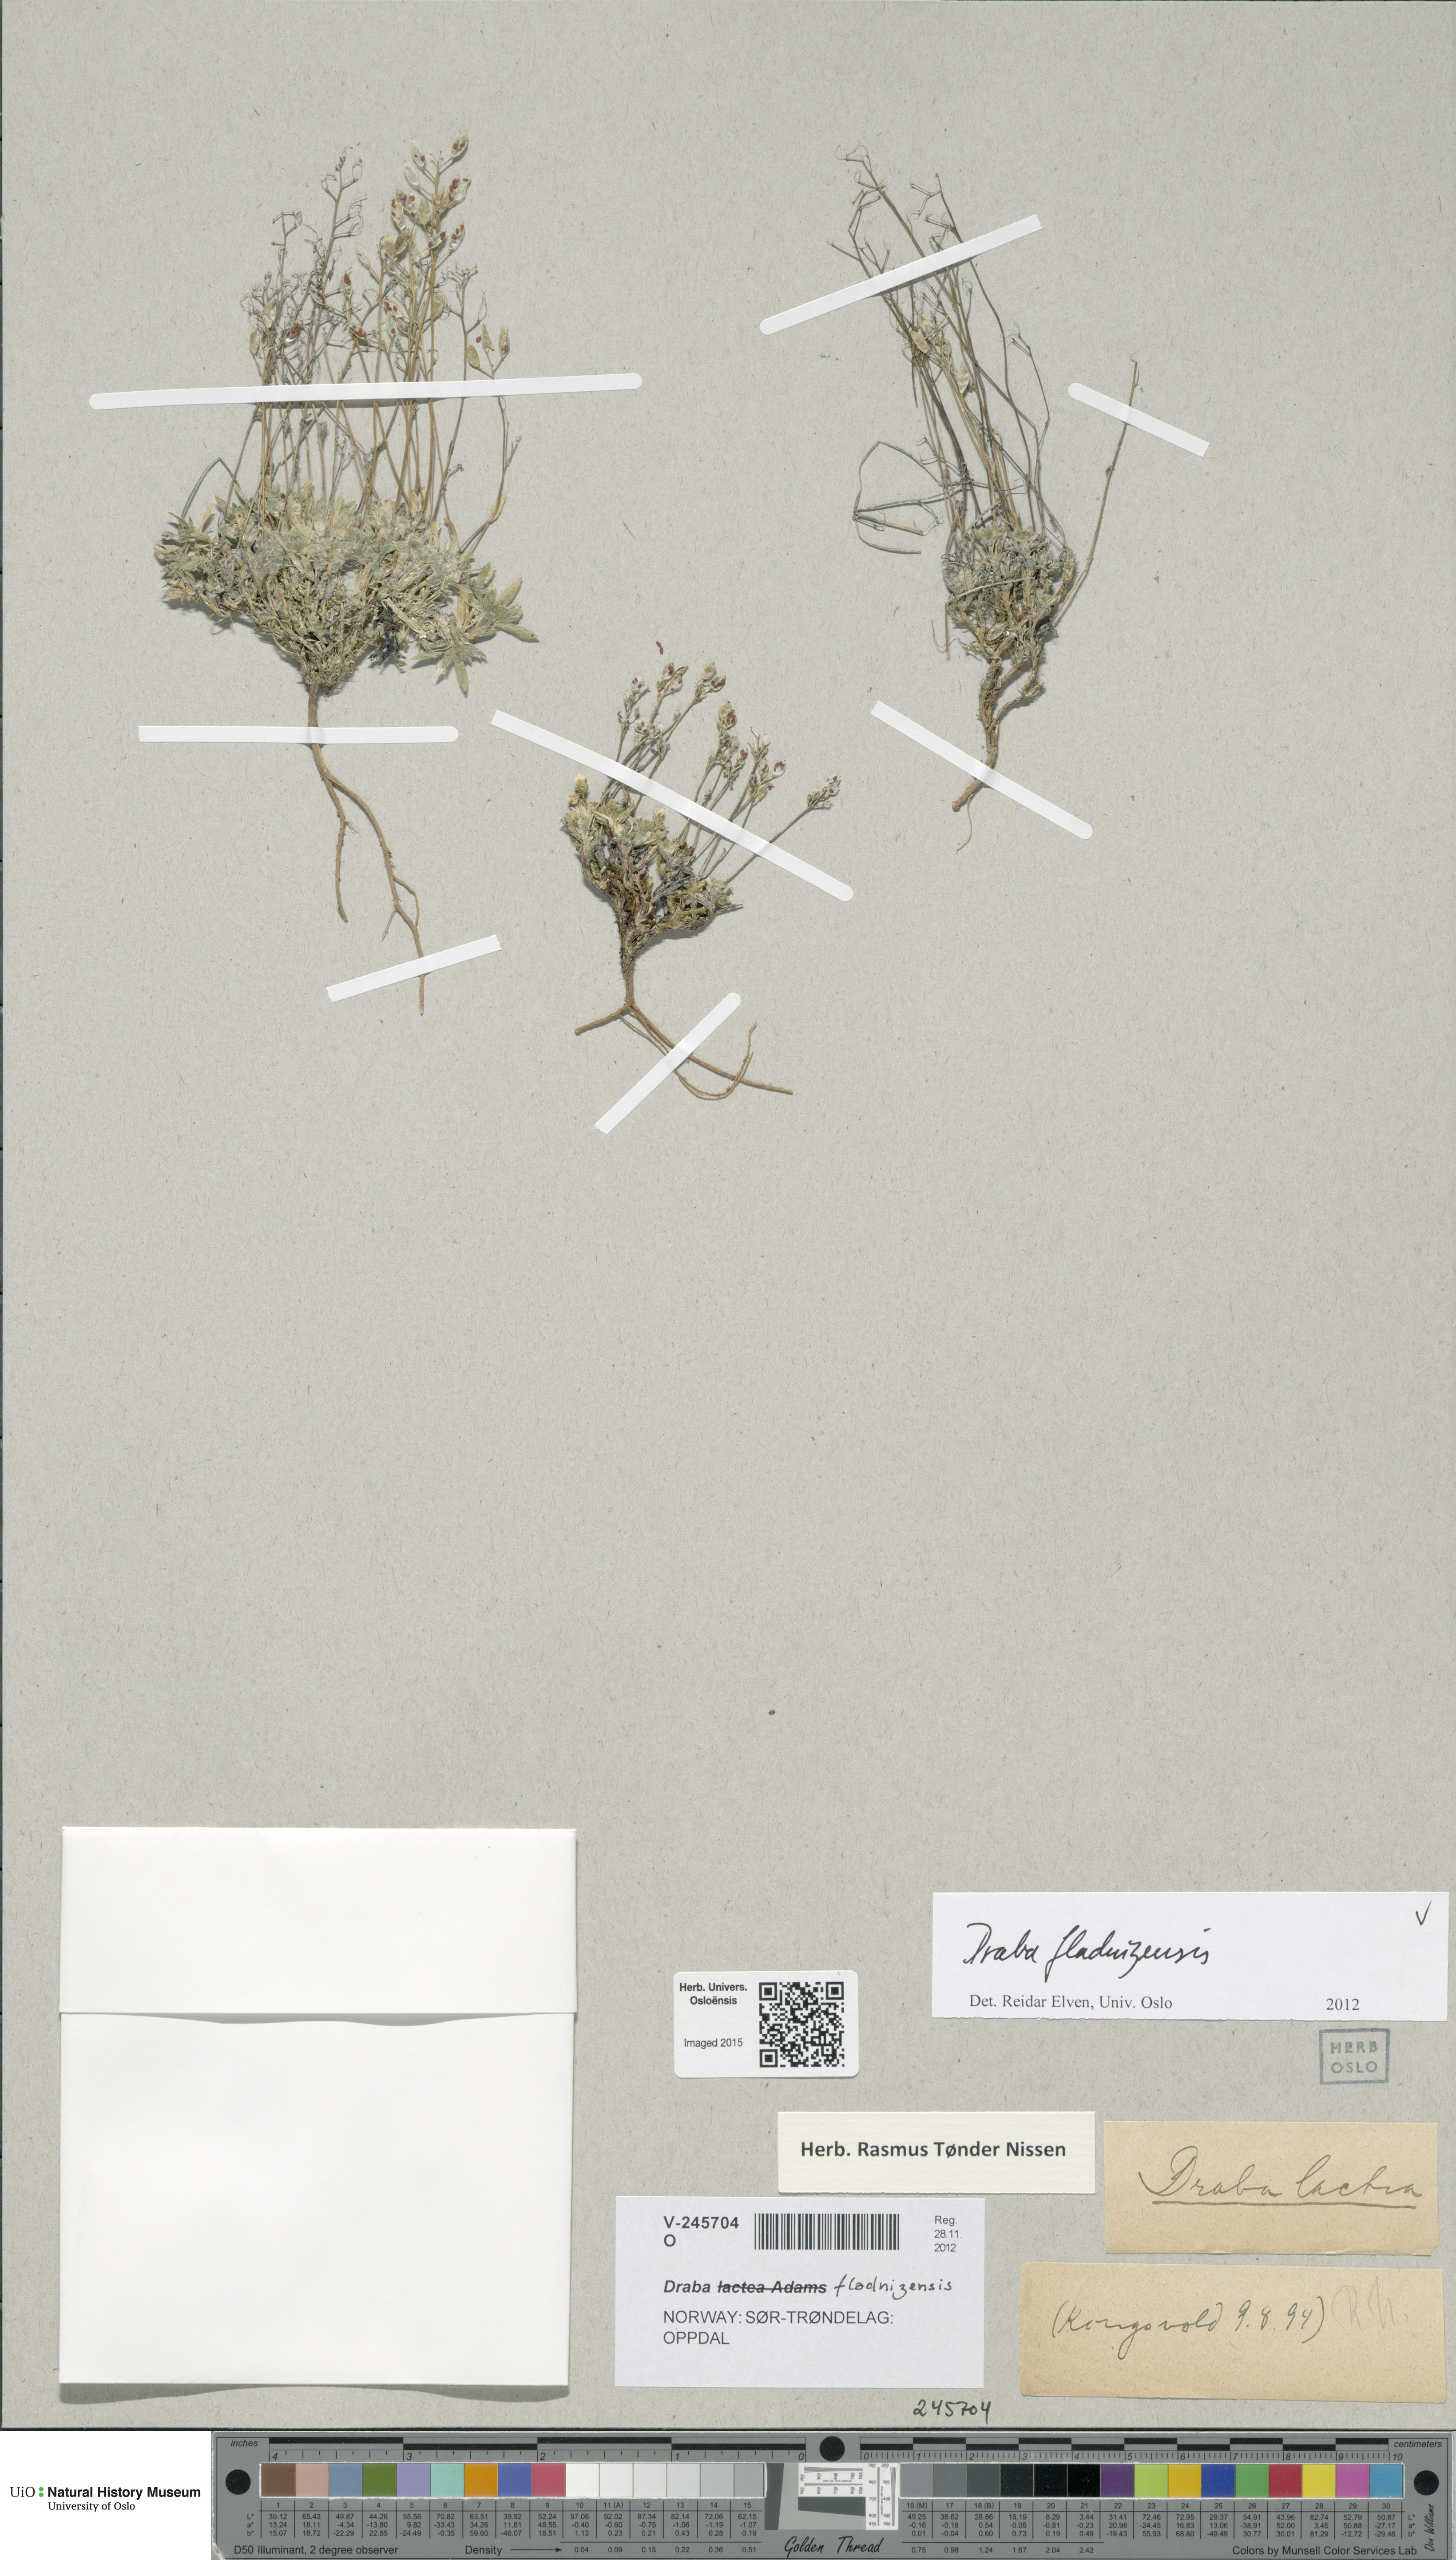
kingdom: Plantae
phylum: Tracheophyta
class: Magnoliopsida
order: Brassicales
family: Brassicaceae
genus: Draba
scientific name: Draba fladnizensis
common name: Austrian draba
